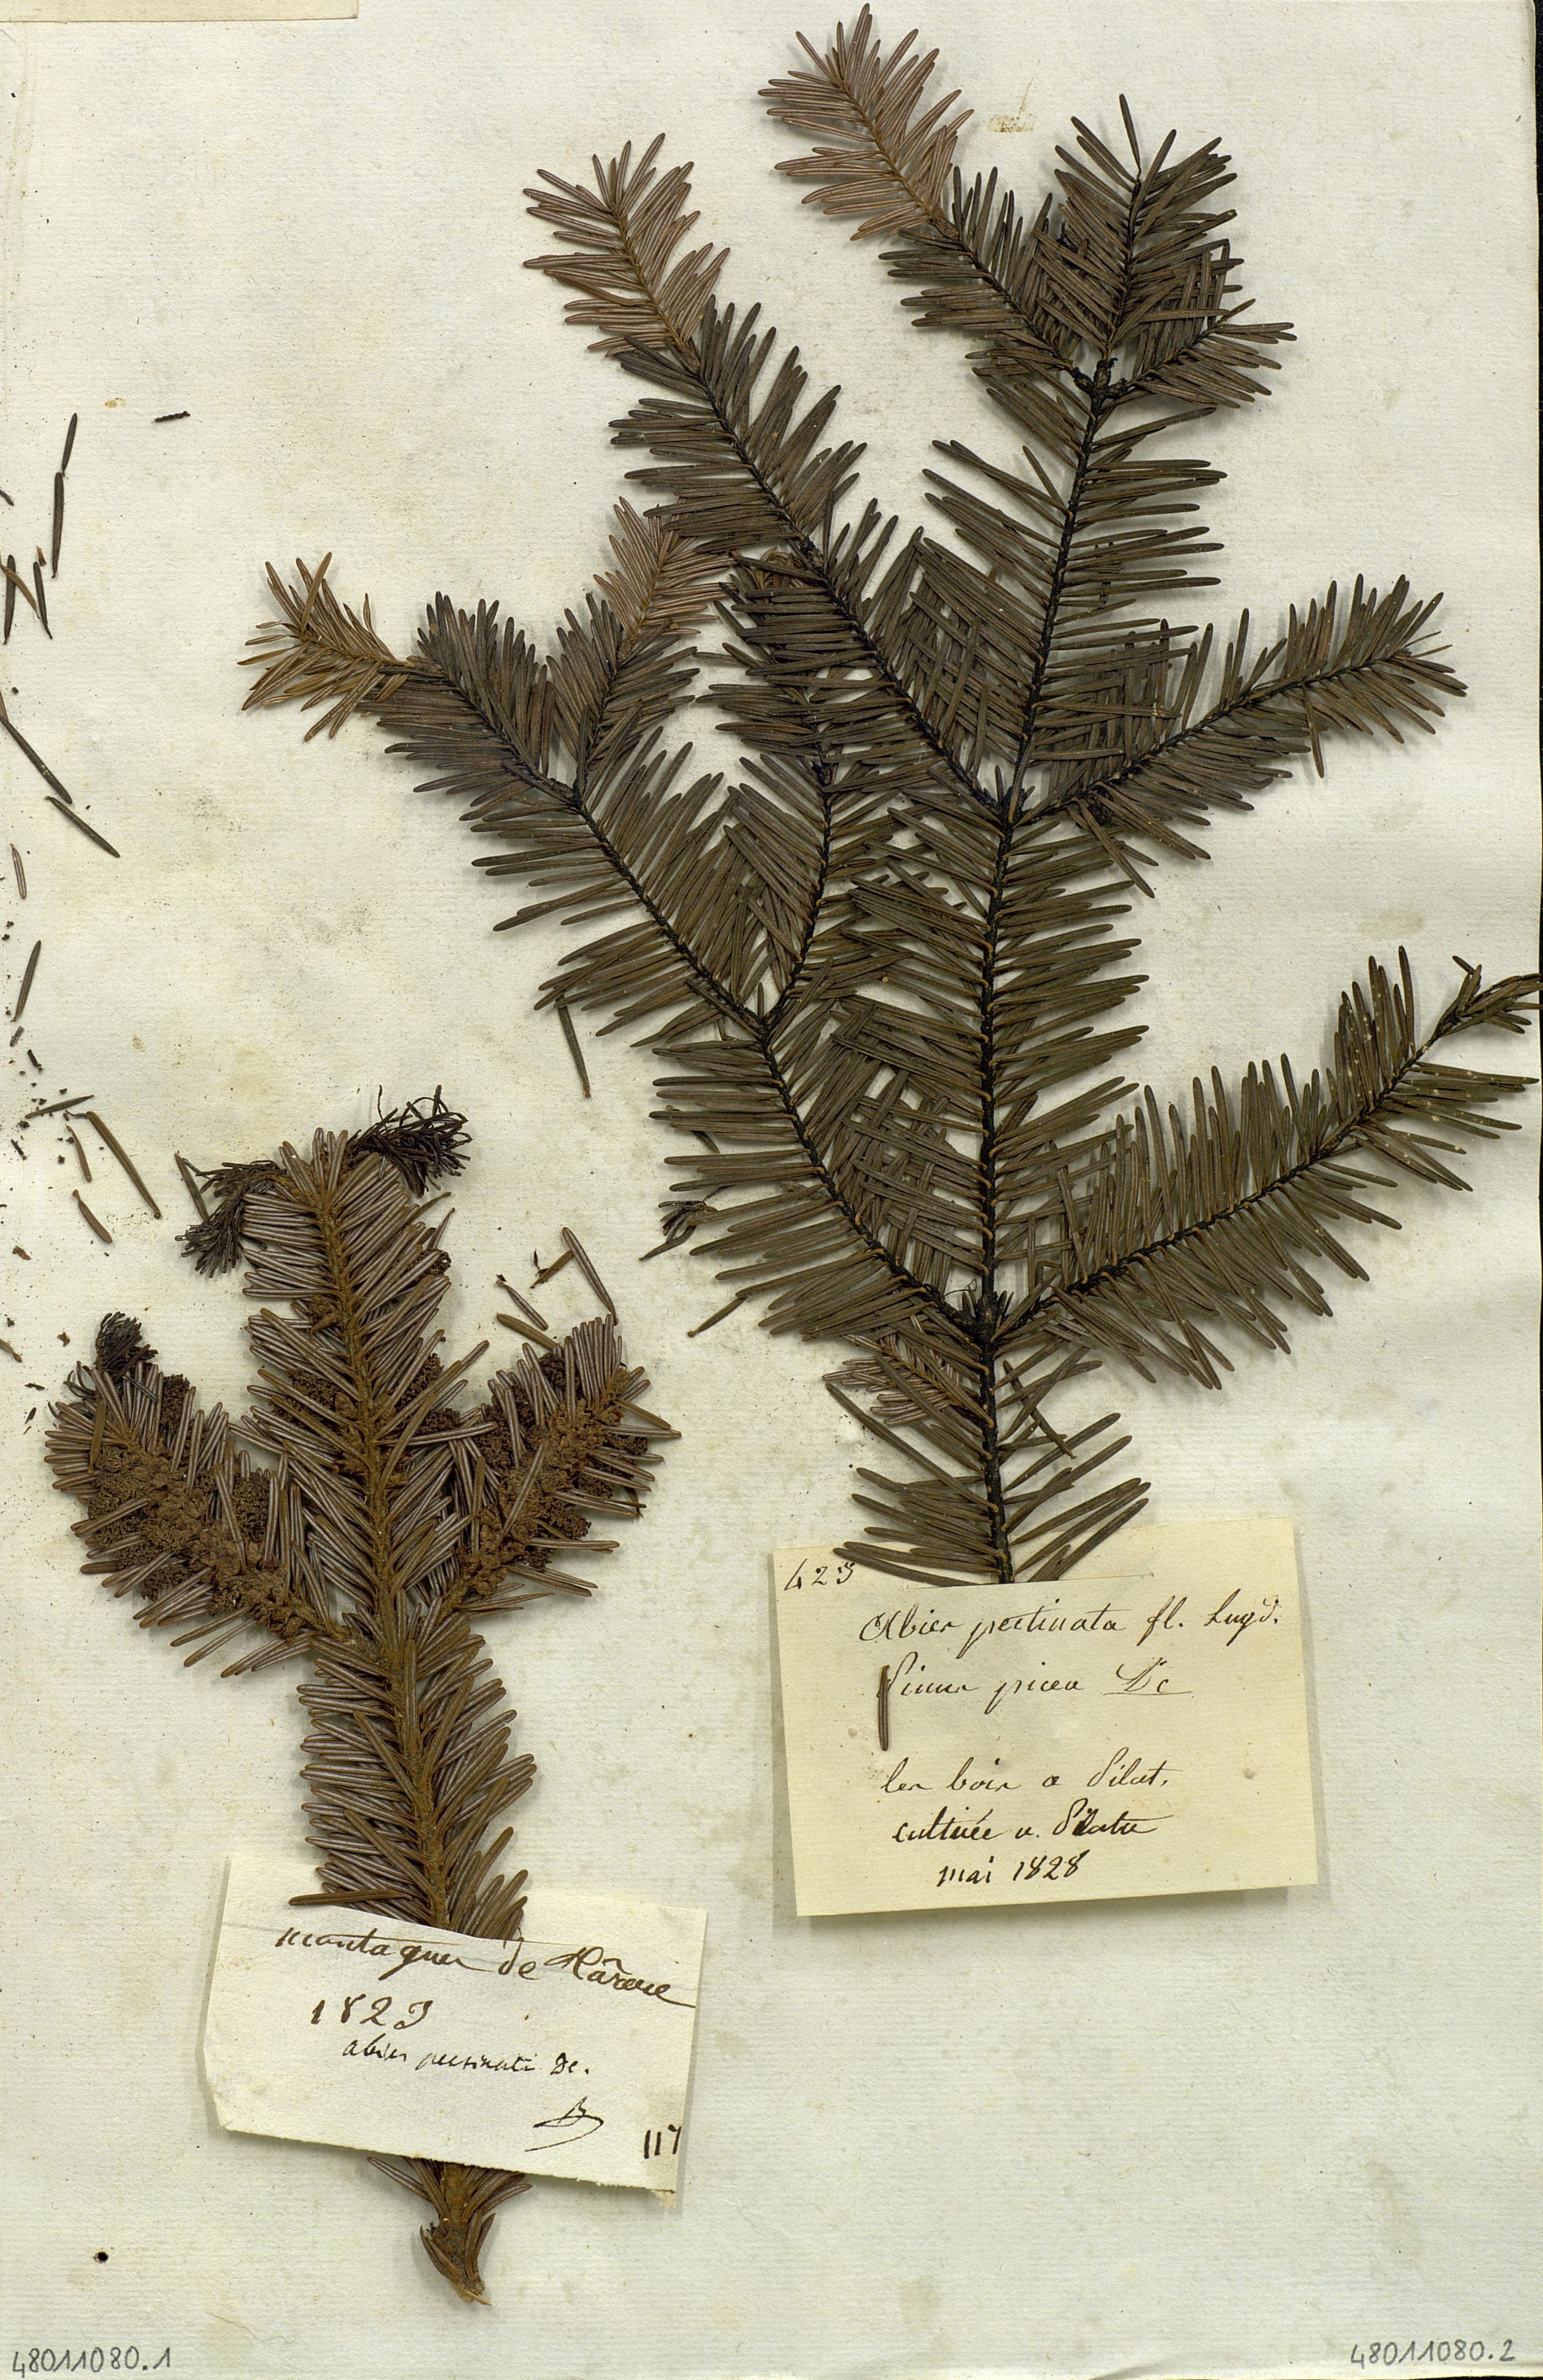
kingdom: Plantae
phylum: Tracheophyta
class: Pinopsida
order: Pinales
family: Pinaceae
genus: Abies
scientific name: Abies
